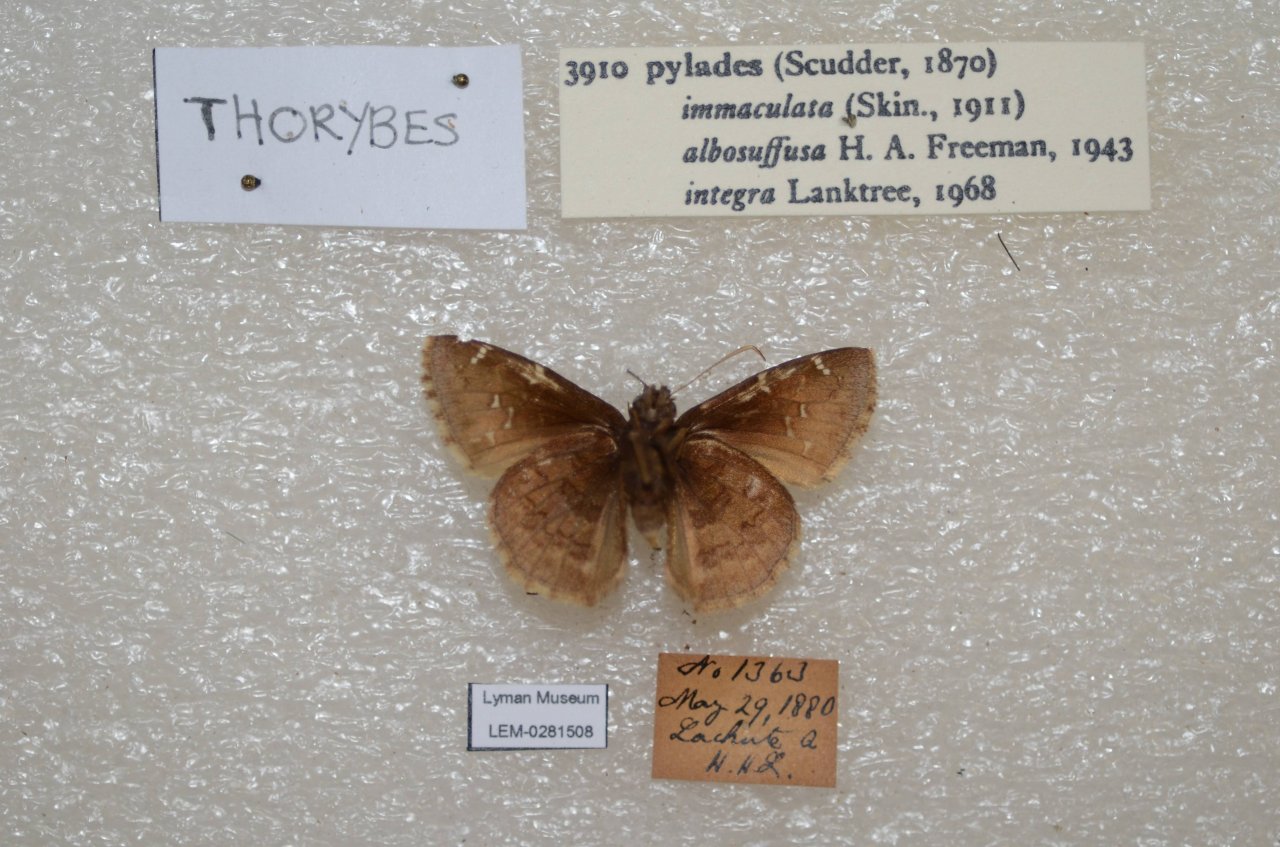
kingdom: Animalia
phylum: Arthropoda
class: Insecta
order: Lepidoptera
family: Hesperiidae
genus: Autochton
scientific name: Autochton
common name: Northern Cloudywing
